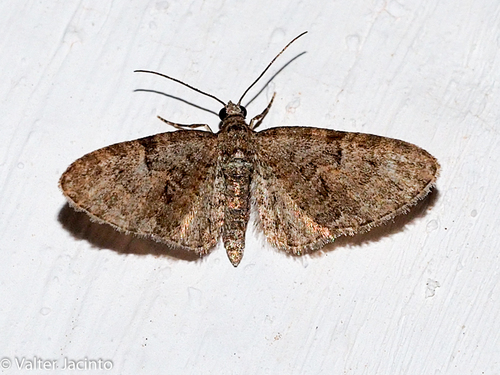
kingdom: Animalia
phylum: Arthropoda
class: Insecta
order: Lepidoptera
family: Geometridae
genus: Eupithecia
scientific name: Eupithecia abbreviata
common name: Brindled pug
